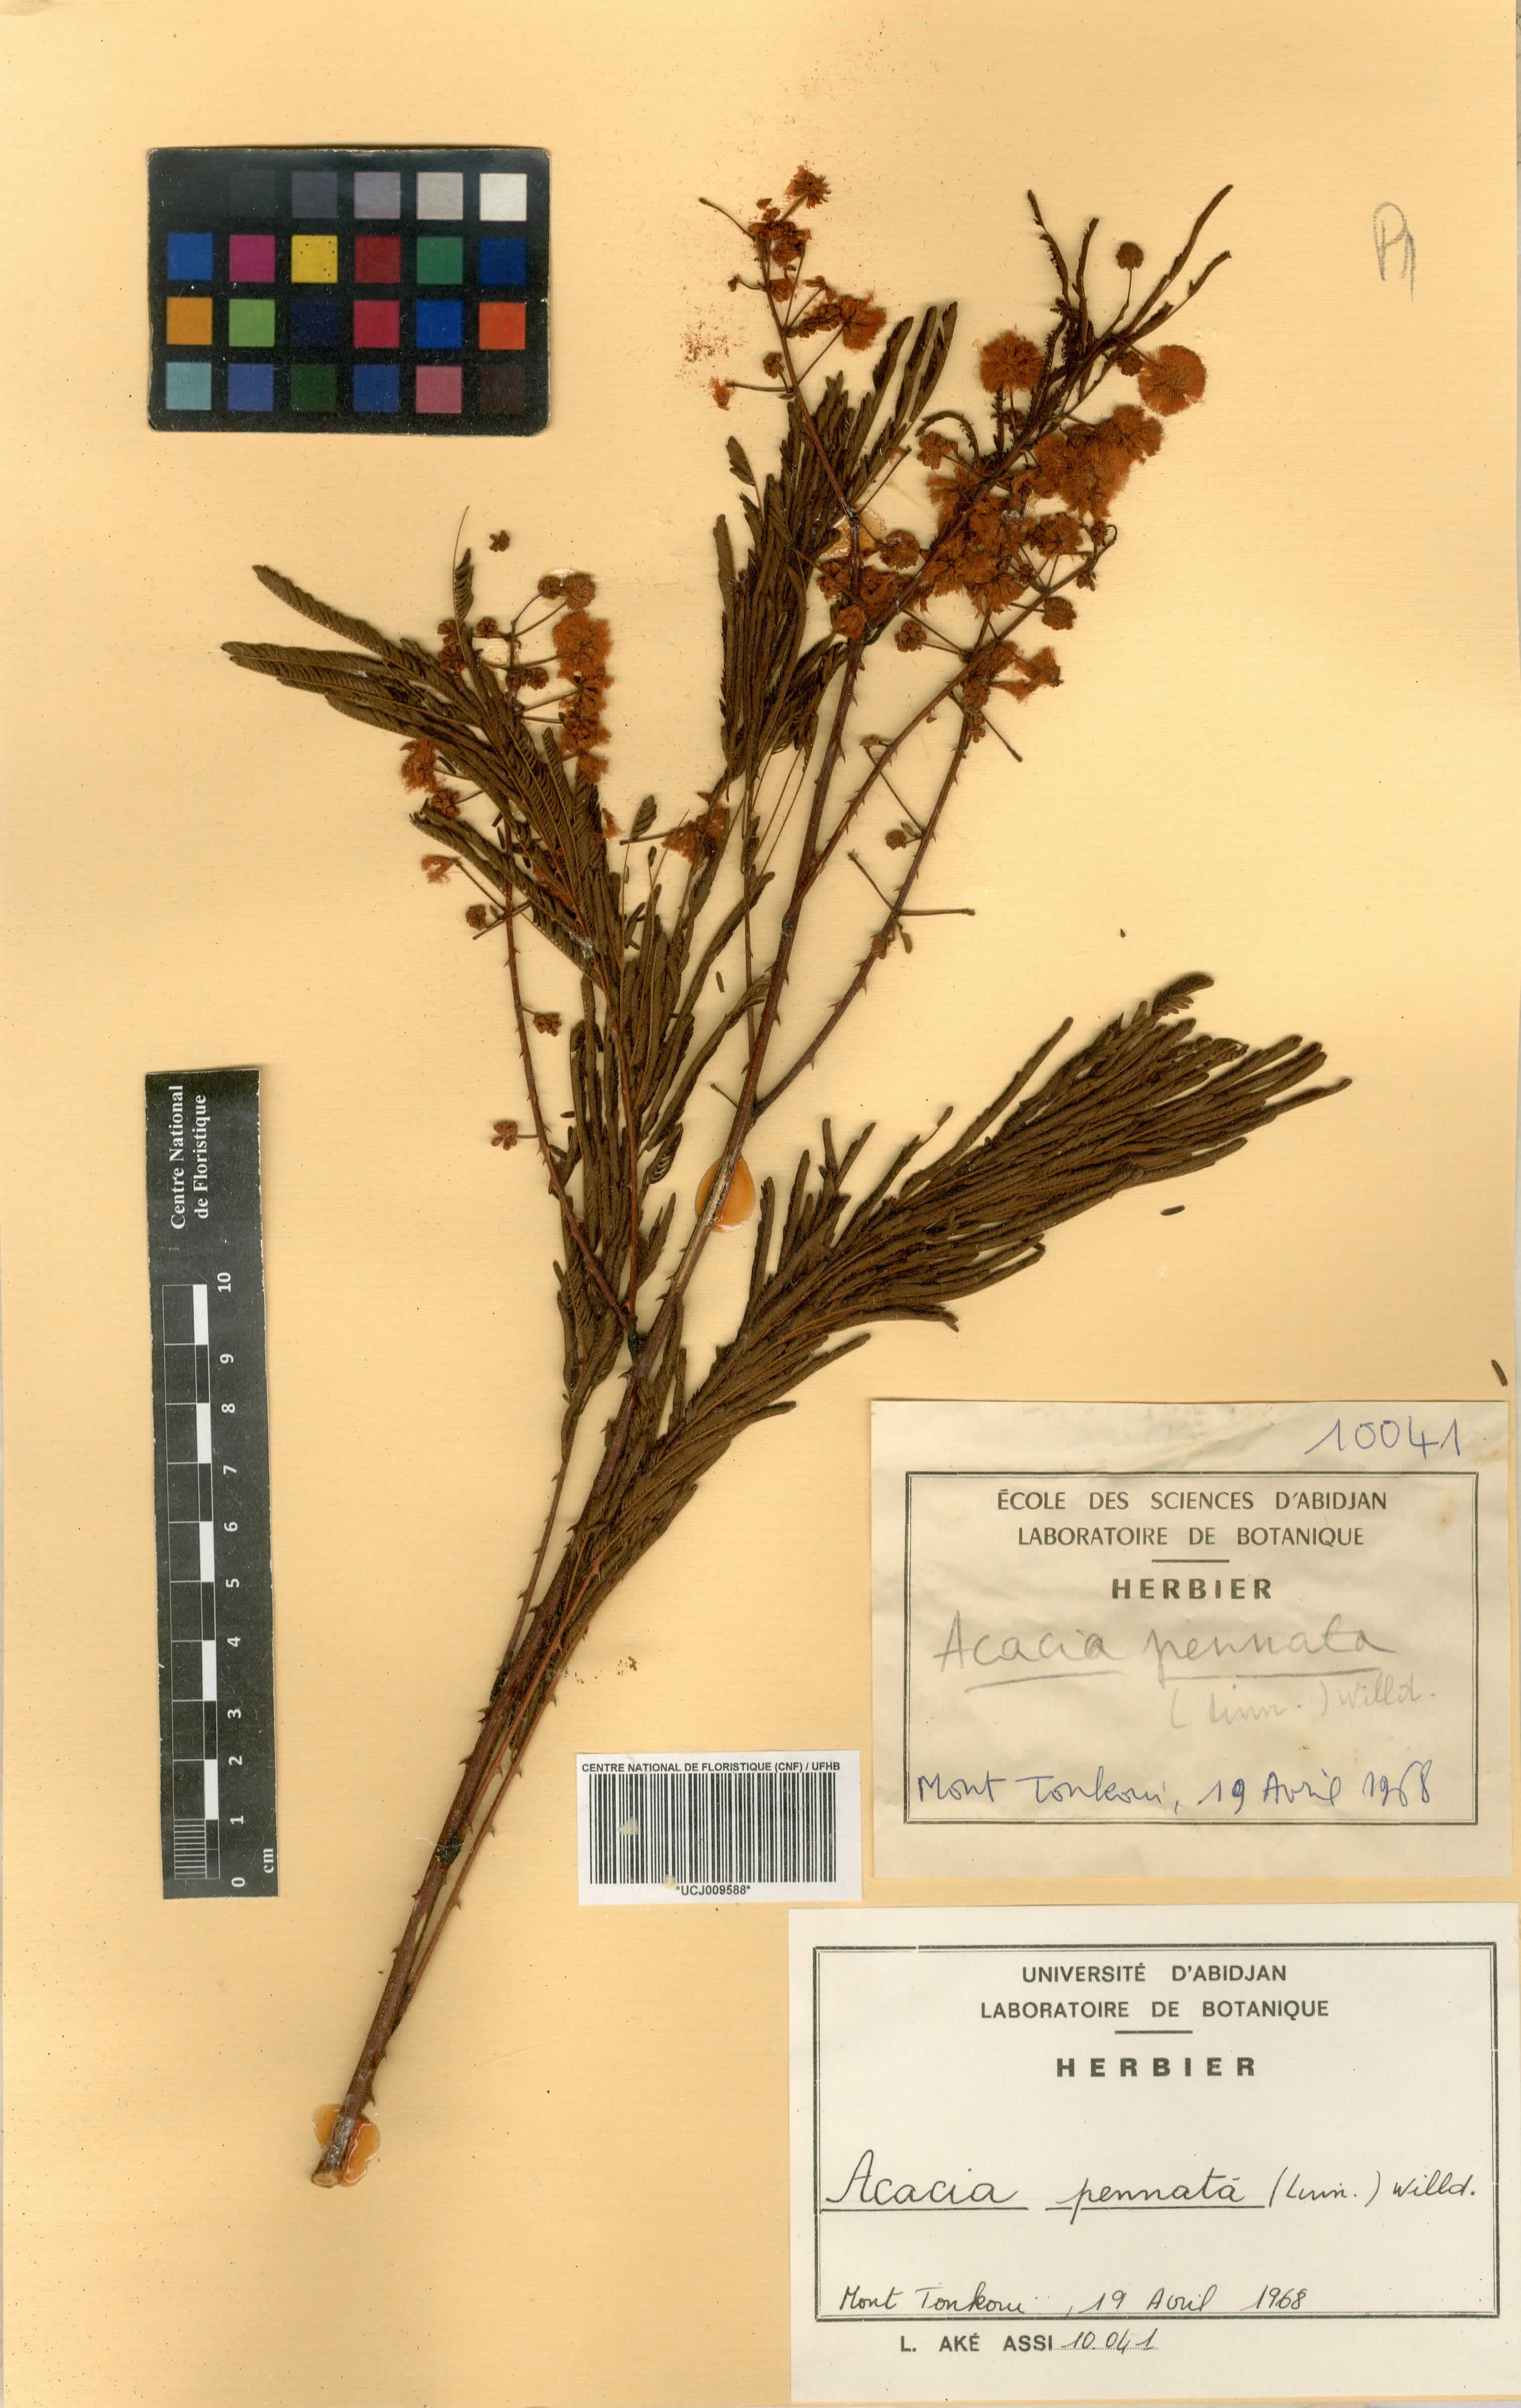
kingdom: Plantae
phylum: Tracheophyta
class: Magnoliopsida
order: Fabales
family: Fabaceae
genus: Senegalia
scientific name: Senegalia pennata
